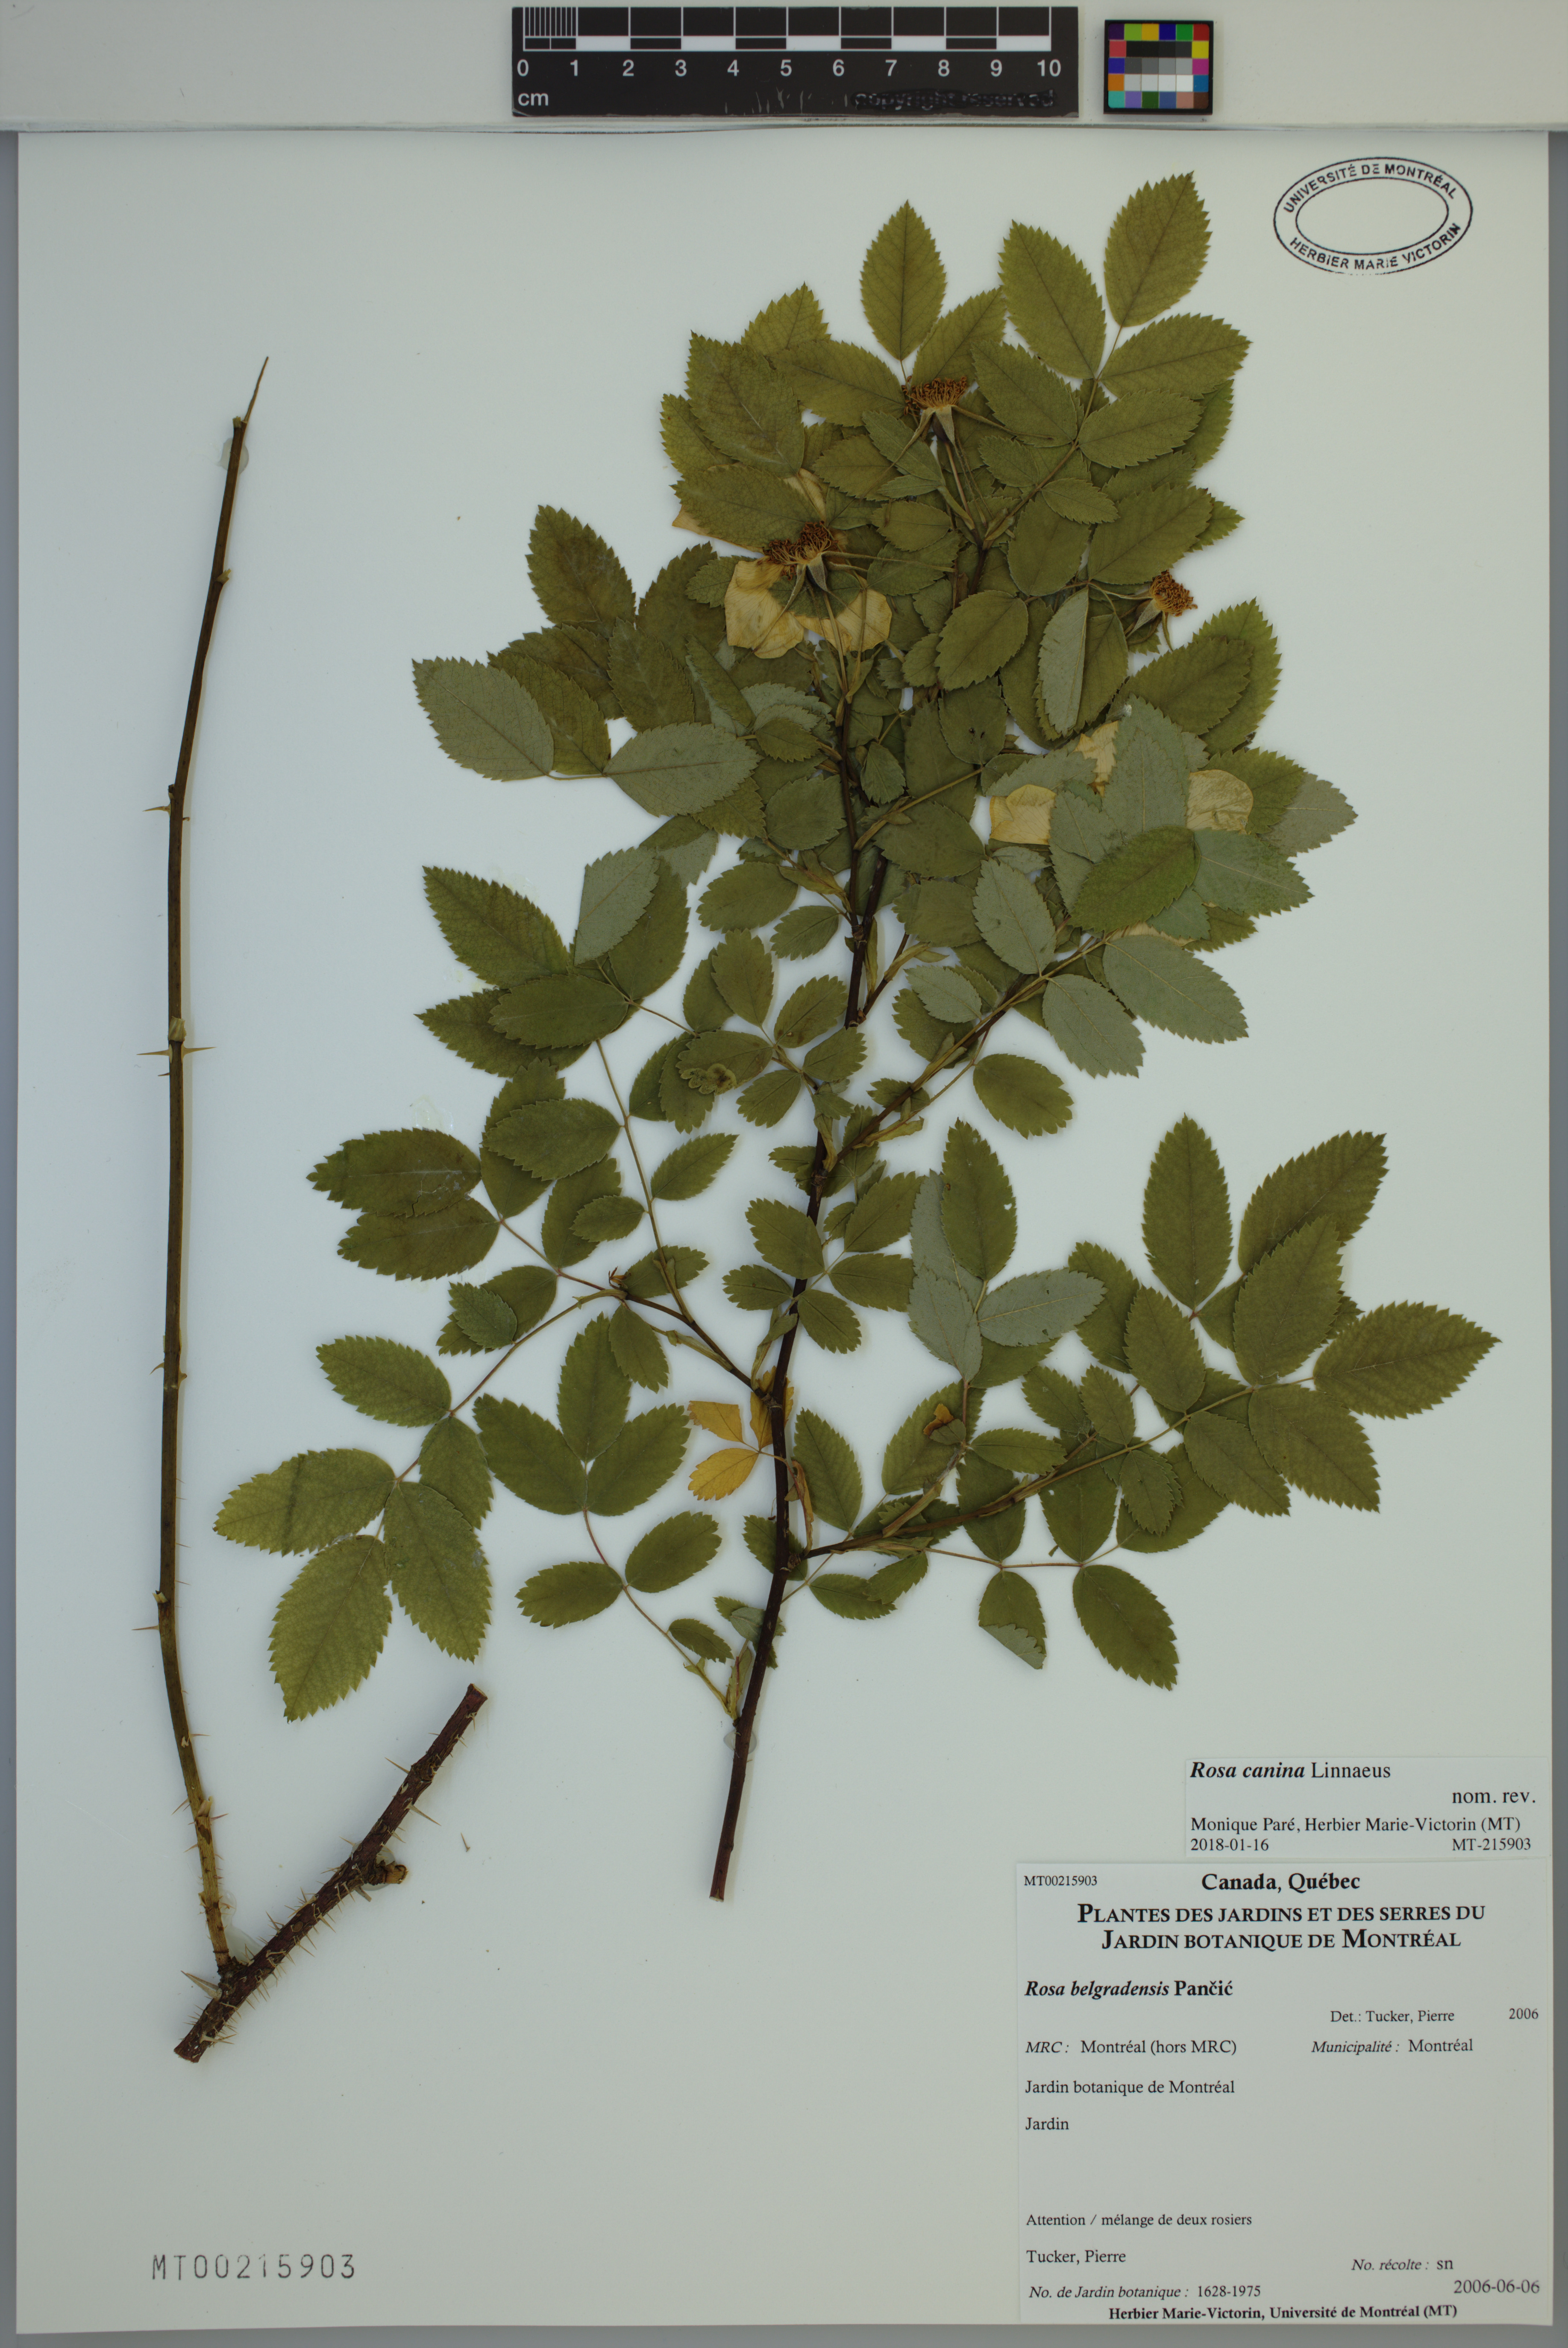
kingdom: Plantae
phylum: Tracheophyta
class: Magnoliopsida
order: Rosales
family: Rosaceae
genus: Rosa
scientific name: Rosa canina
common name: Dog rose
